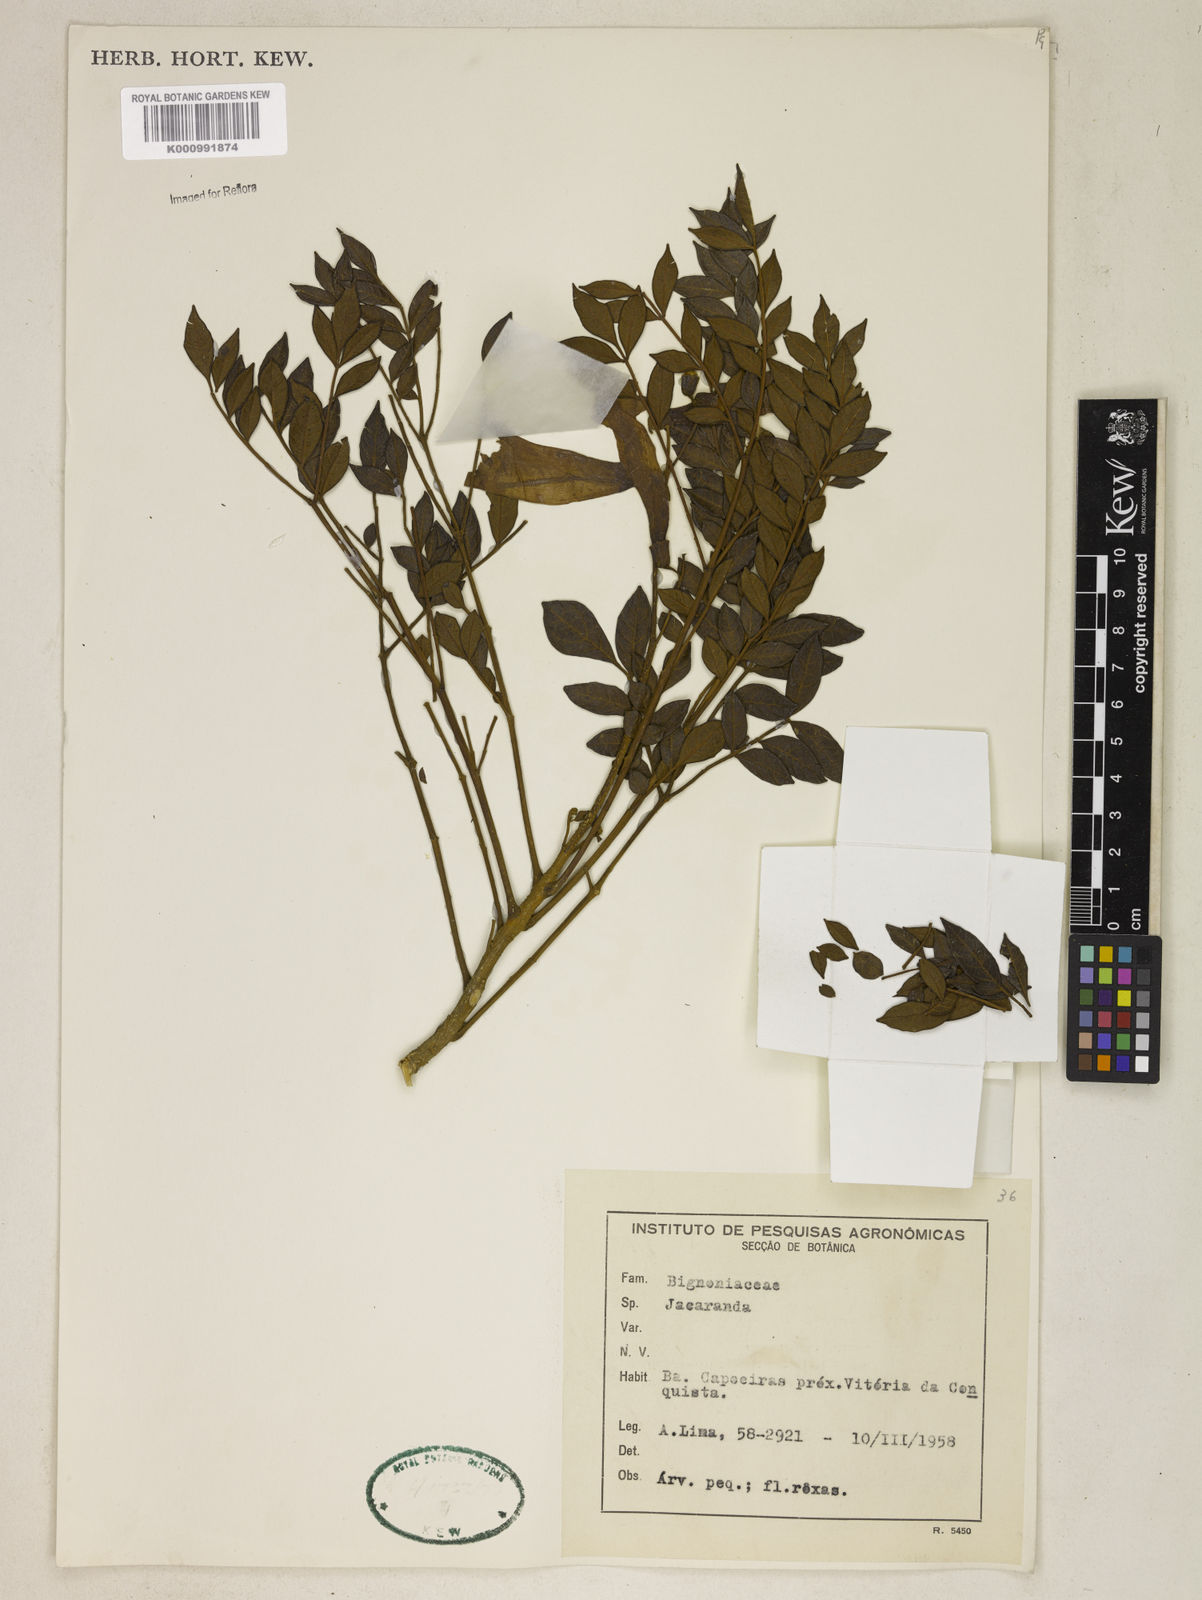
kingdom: Plantae
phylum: Tracheophyta
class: Magnoliopsida
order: Lamiales
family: Bignoniaceae
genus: Jacaranda
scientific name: Jacaranda
